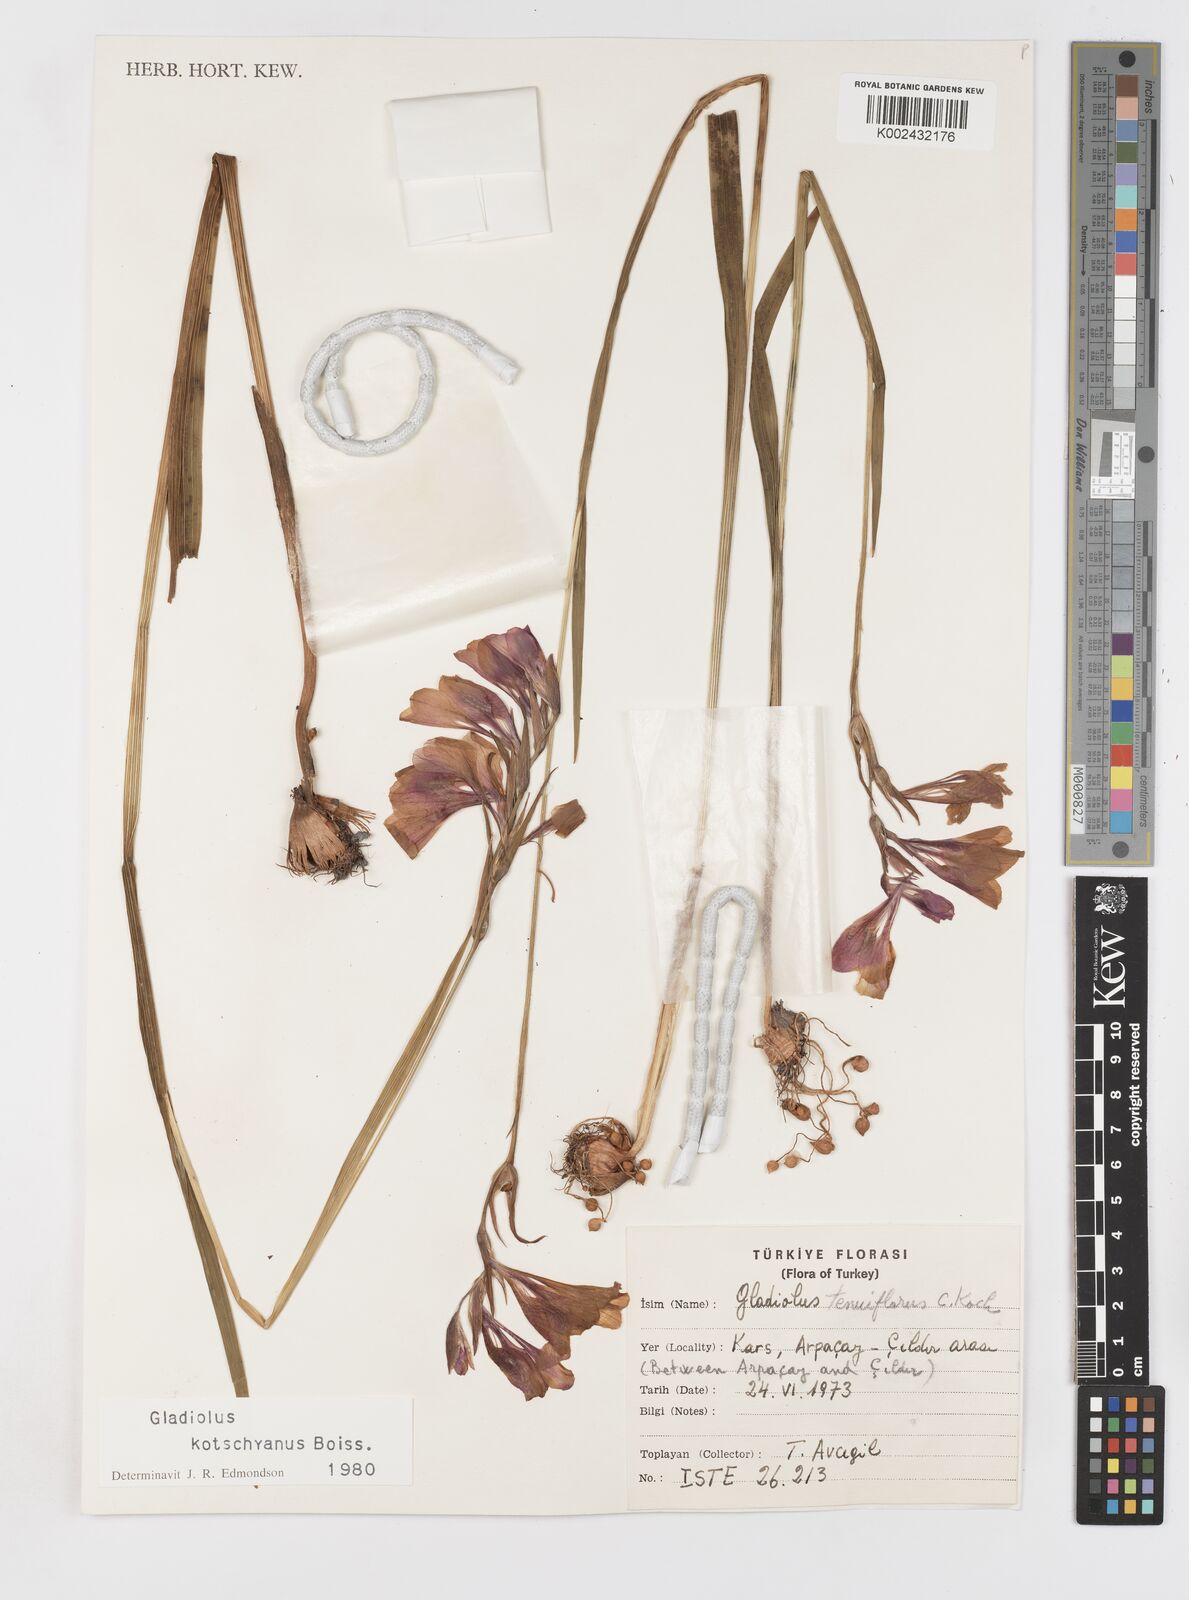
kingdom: Plantae
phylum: Tracheophyta
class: Liliopsida
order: Asparagales
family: Iridaceae
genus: Gladiolus
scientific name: Gladiolus imbricatus
